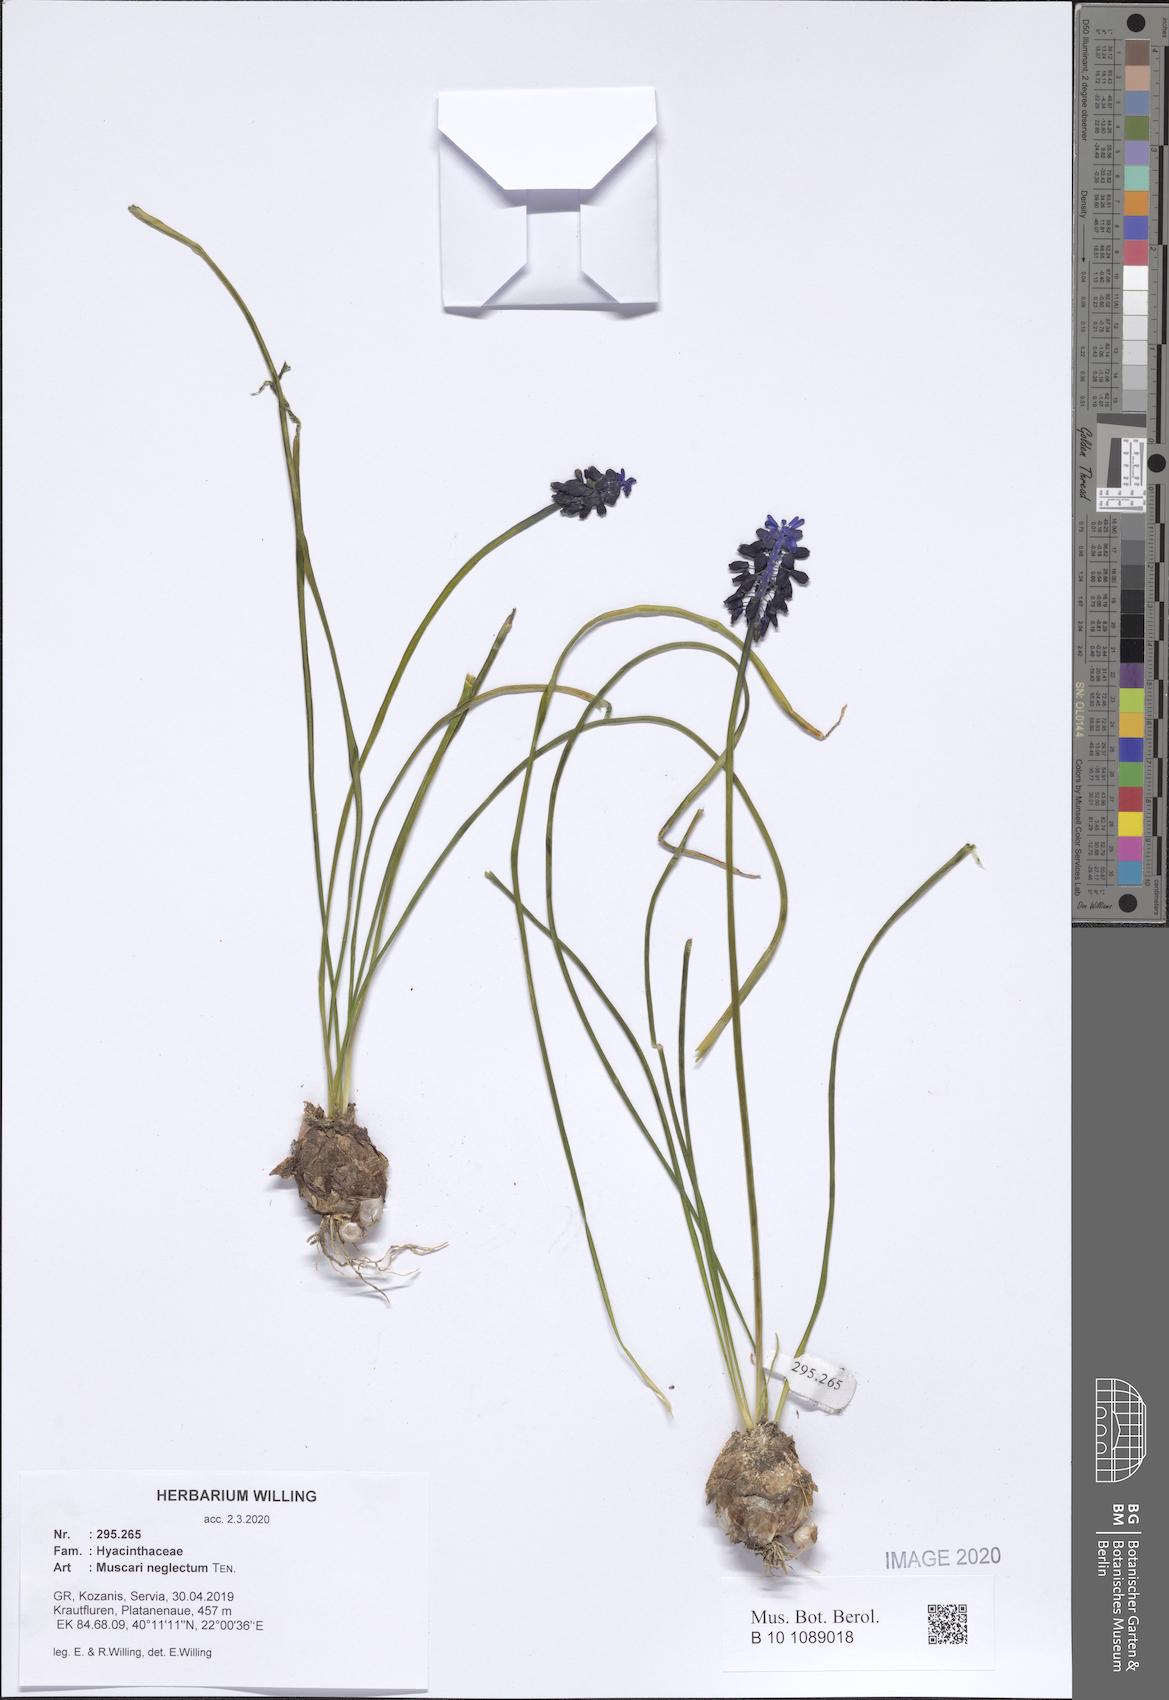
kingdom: Plantae
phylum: Tracheophyta
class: Liliopsida
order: Asparagales
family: Asparagaceae
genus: Muscari
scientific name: Muscari neglectum
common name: Grape-hyacinth
